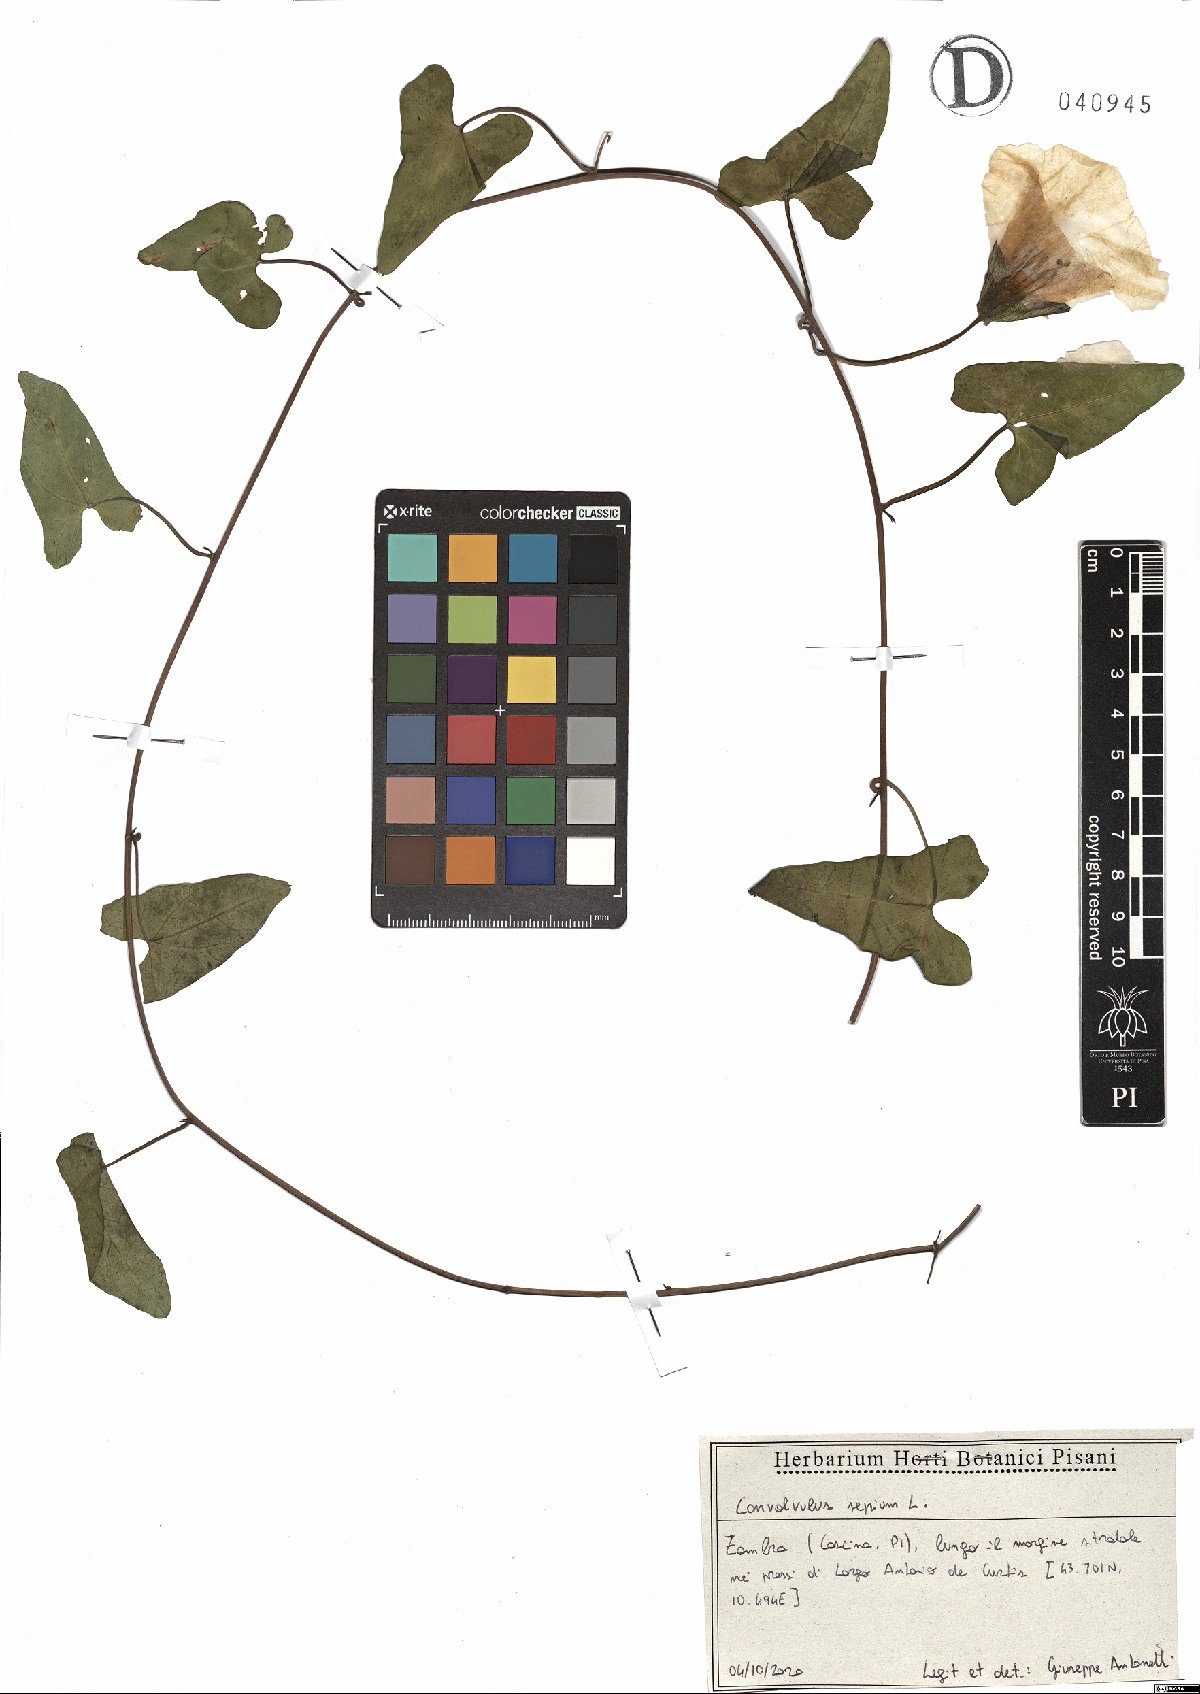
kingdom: Plantae
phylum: Tracheophyta
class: Magnoliopsida
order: Solanales
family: Convolvulaceae
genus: Calystegia
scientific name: Calystegia sepium
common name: Hedge bindweed
